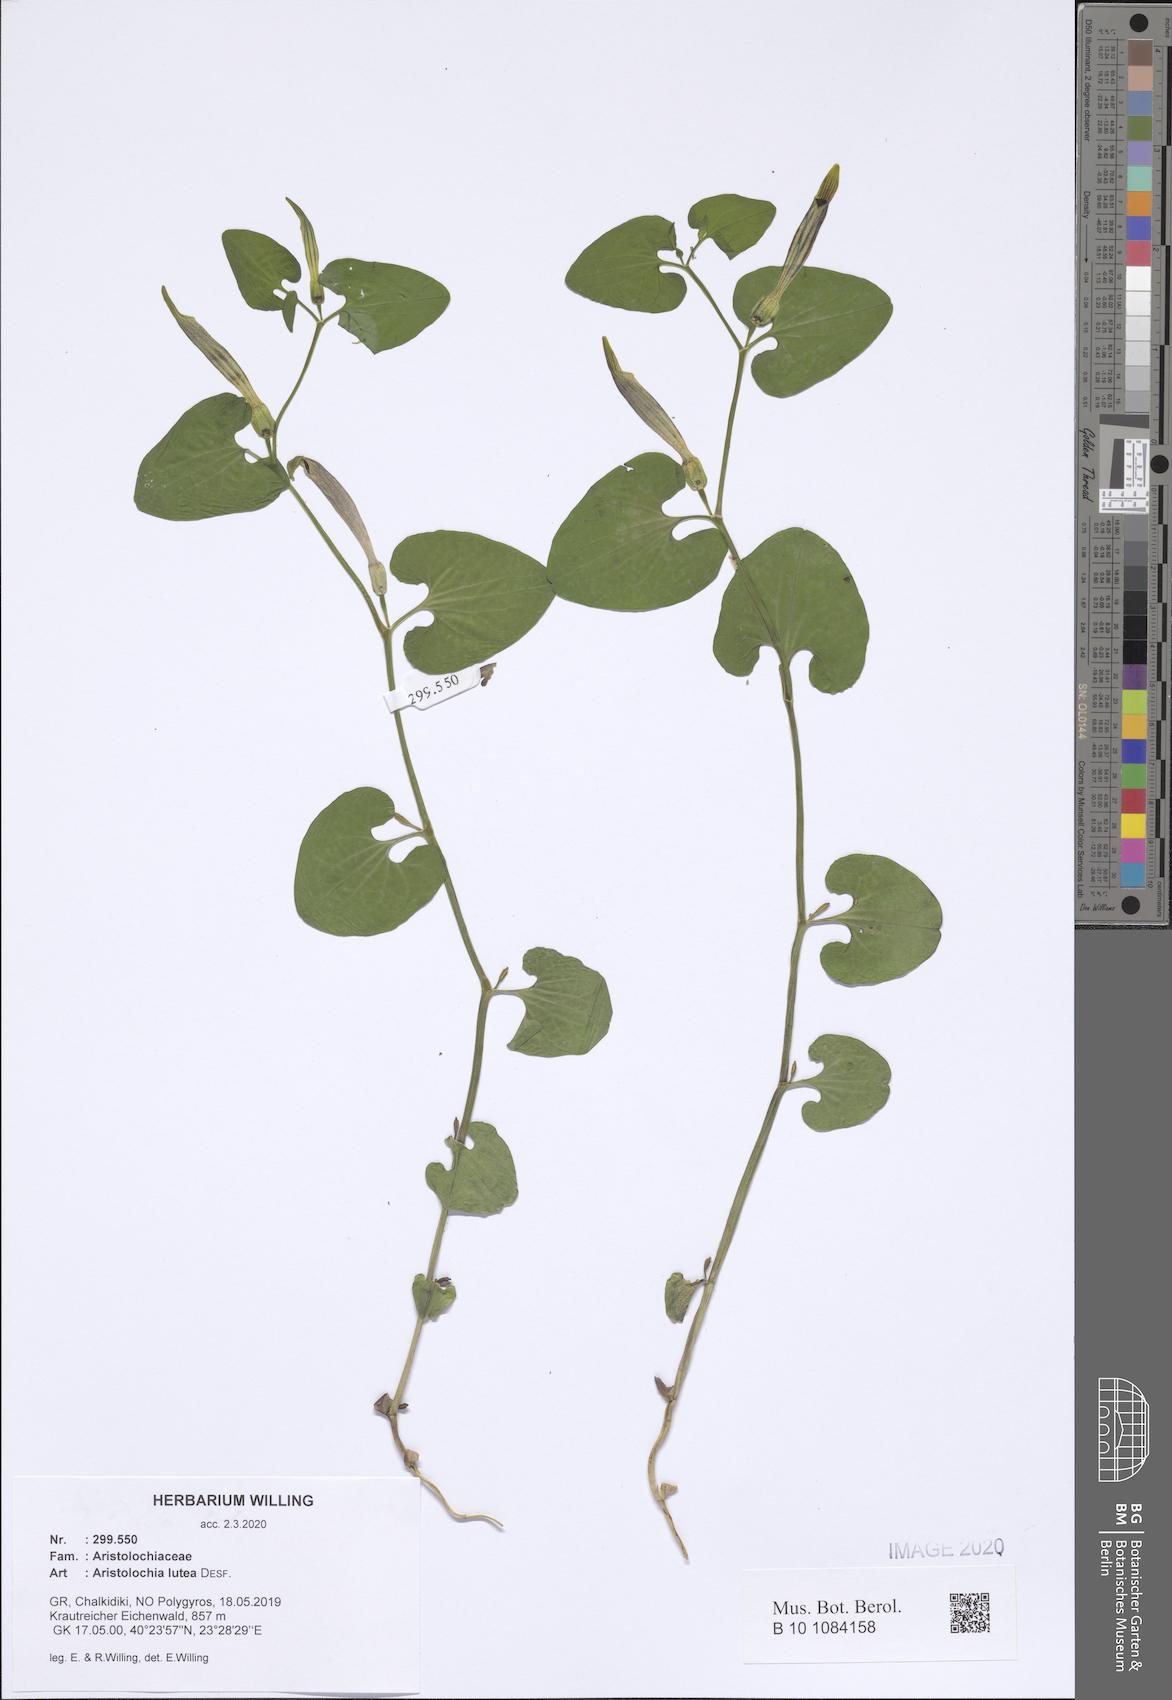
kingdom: Plantae
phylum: Tracheophyta
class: Magnoliopsida
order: Piperales
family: Aristolochiaceae
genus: Aristolochia
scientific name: Aristolochia lutea
